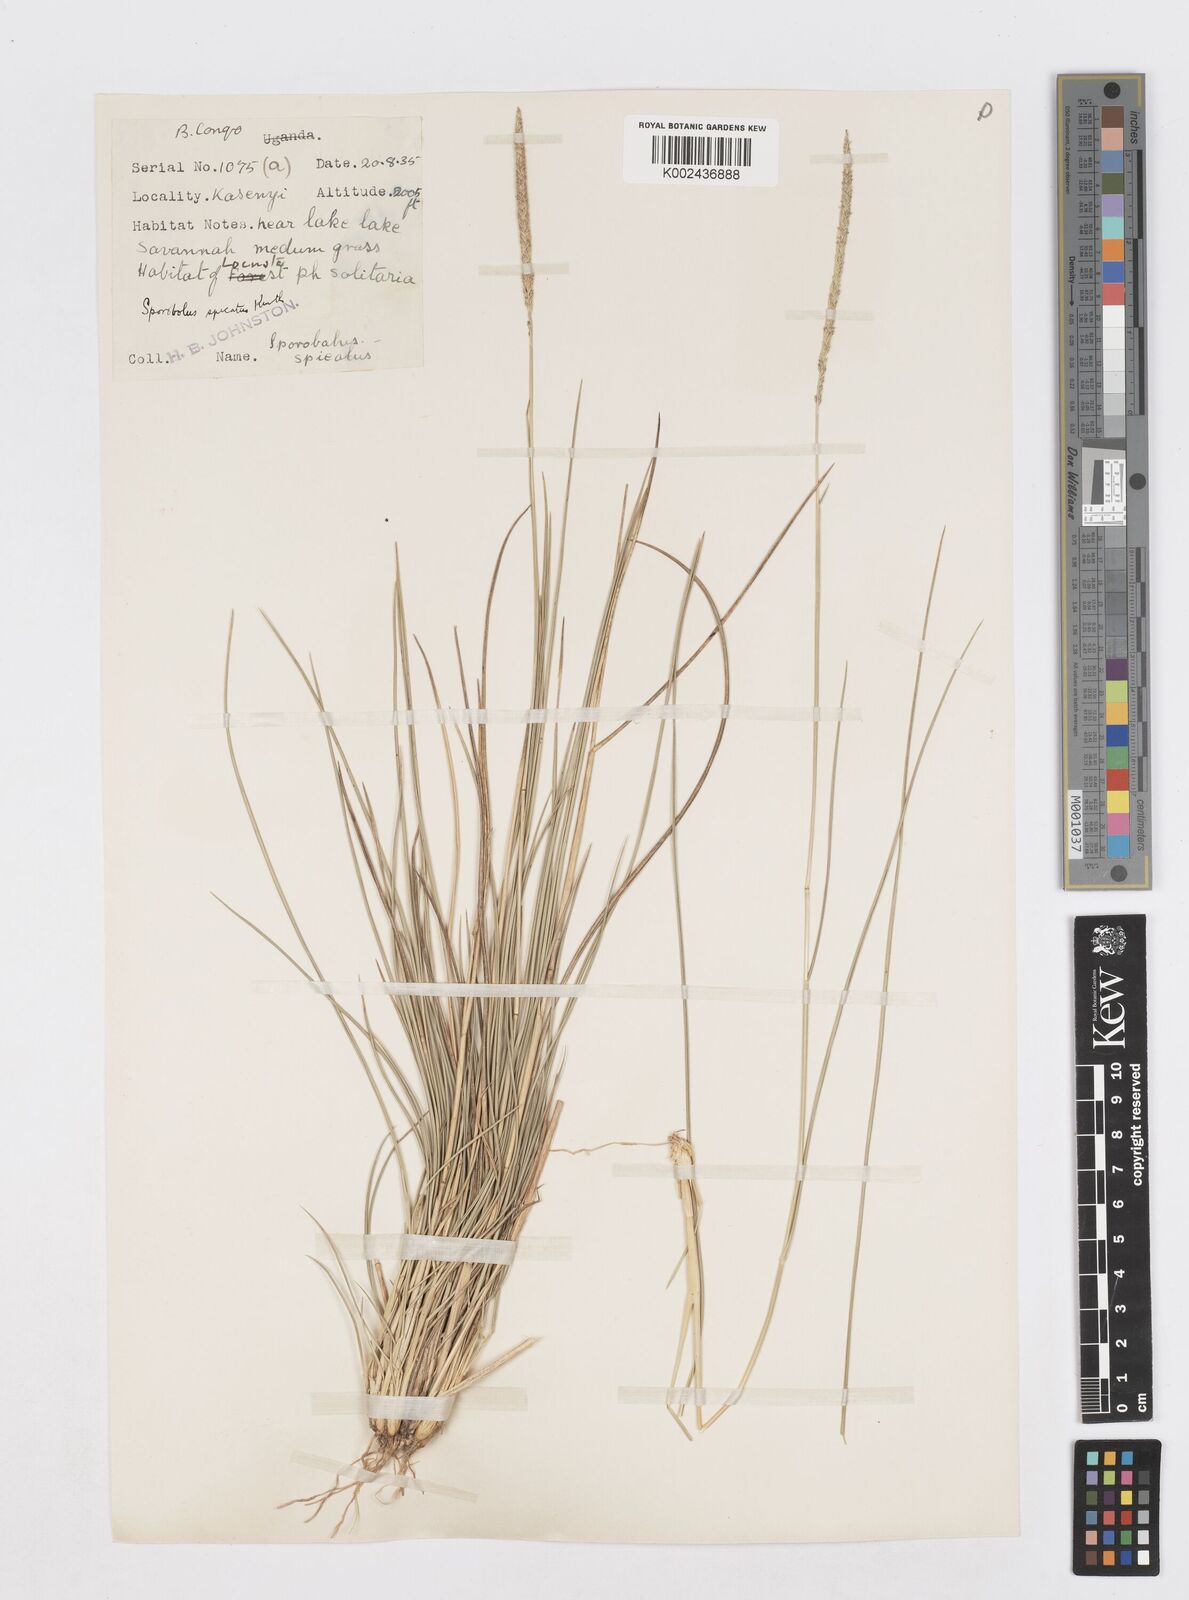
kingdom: Plantae
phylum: Tracheophyta
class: Liliopsida
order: Poales
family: Poaceae
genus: Sporobolus
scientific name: Sporobolus spicatus
